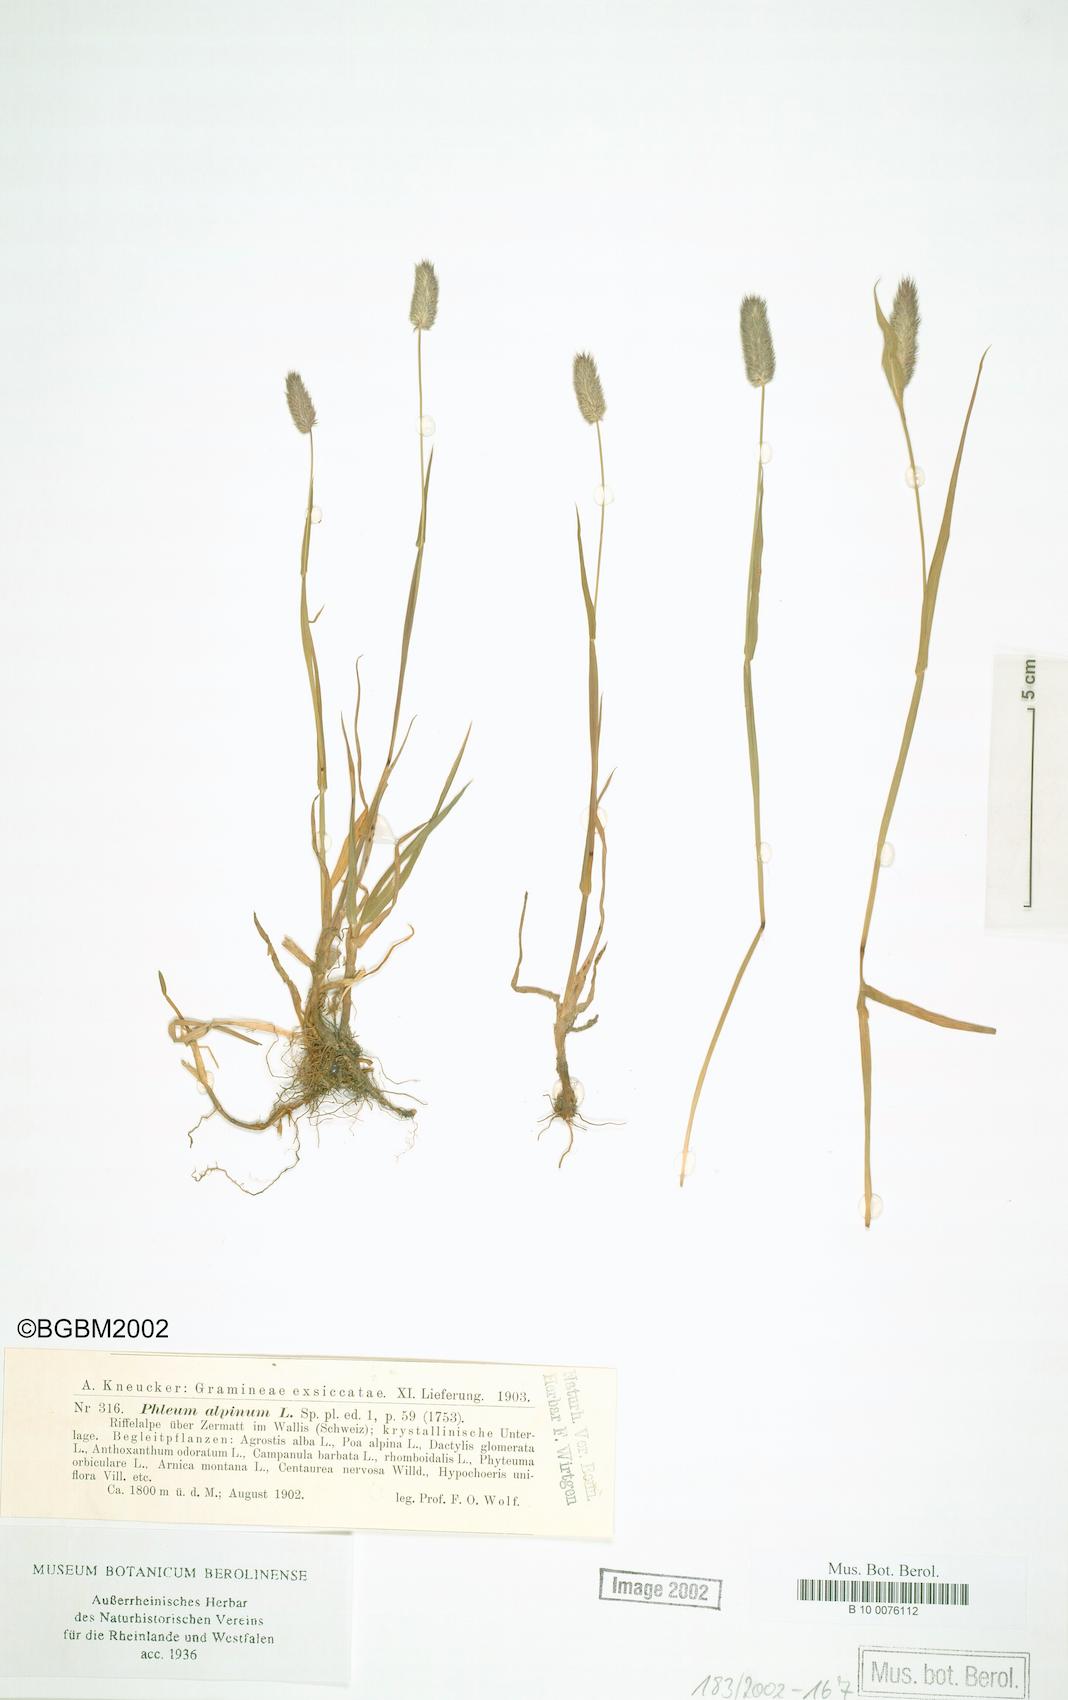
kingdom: Plantae
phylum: Tracheophyta
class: Liliopsida
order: Poales
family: Poaceae
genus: Phleum
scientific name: Phleum alpinum
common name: Alpine cat's-tail
